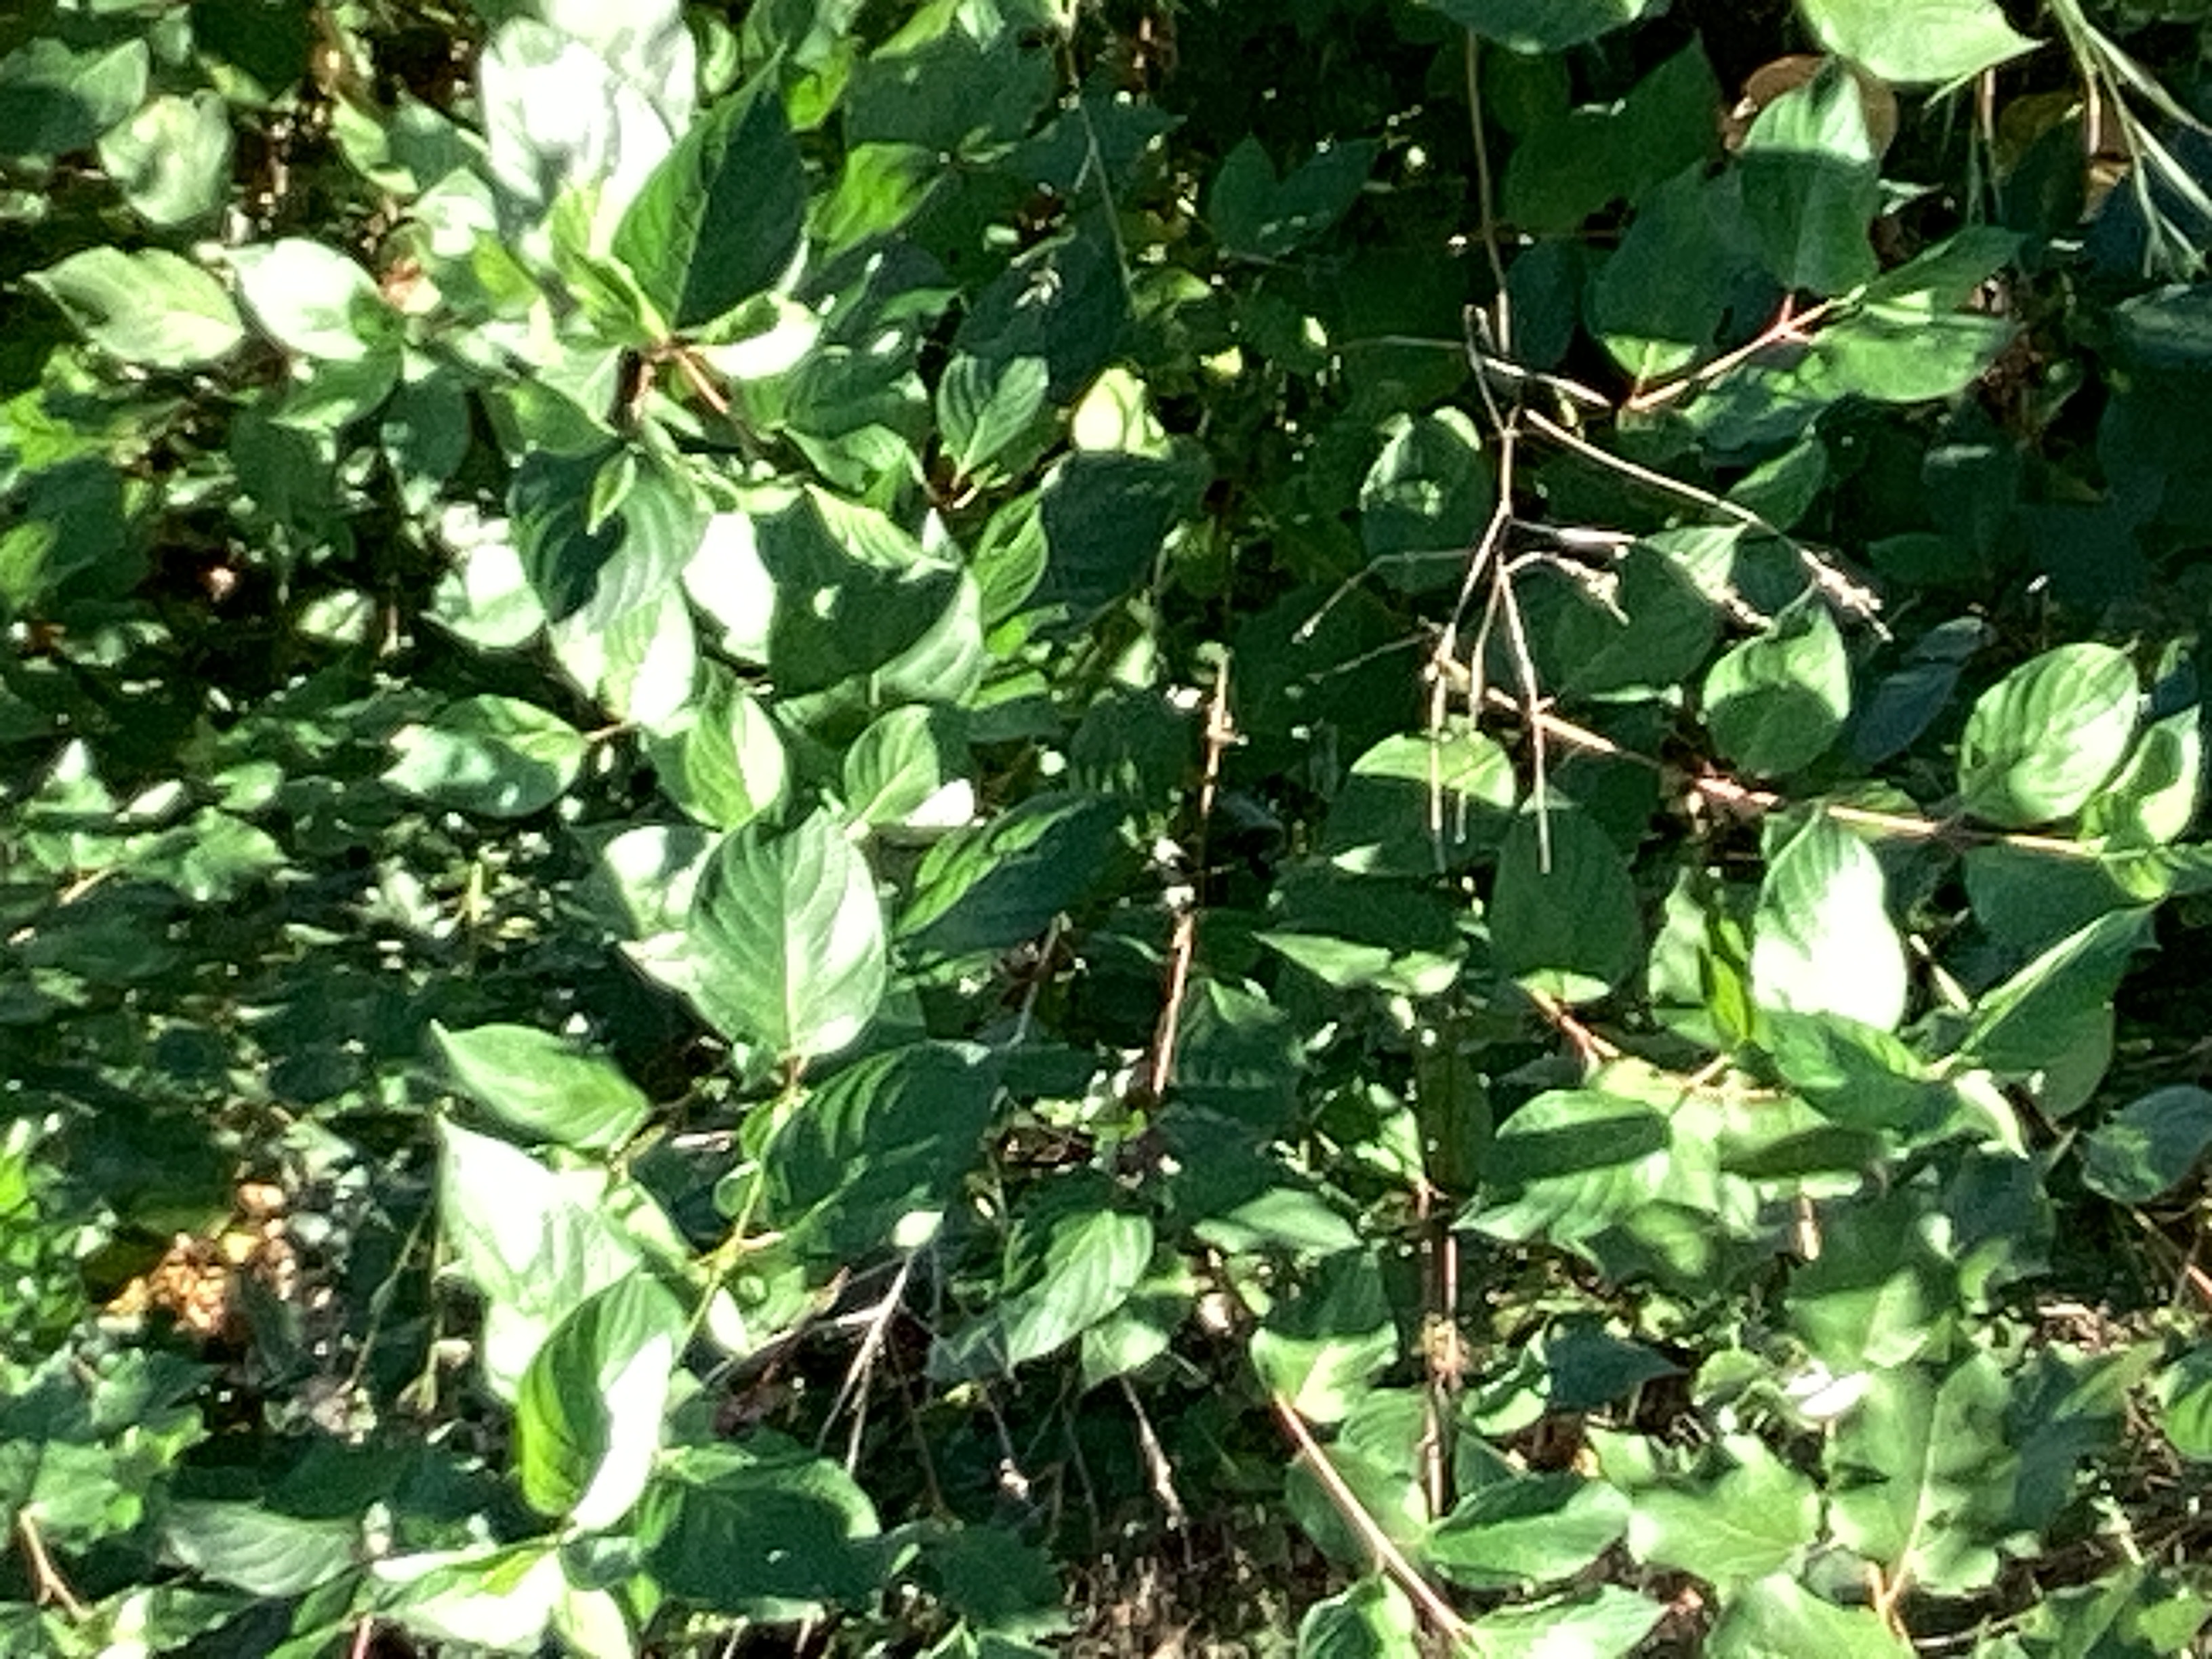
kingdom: Plantae
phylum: Tracheophyta
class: Magnoliopsida
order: Cornales
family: Cornaceae
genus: Cornus
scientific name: Cornus alba
